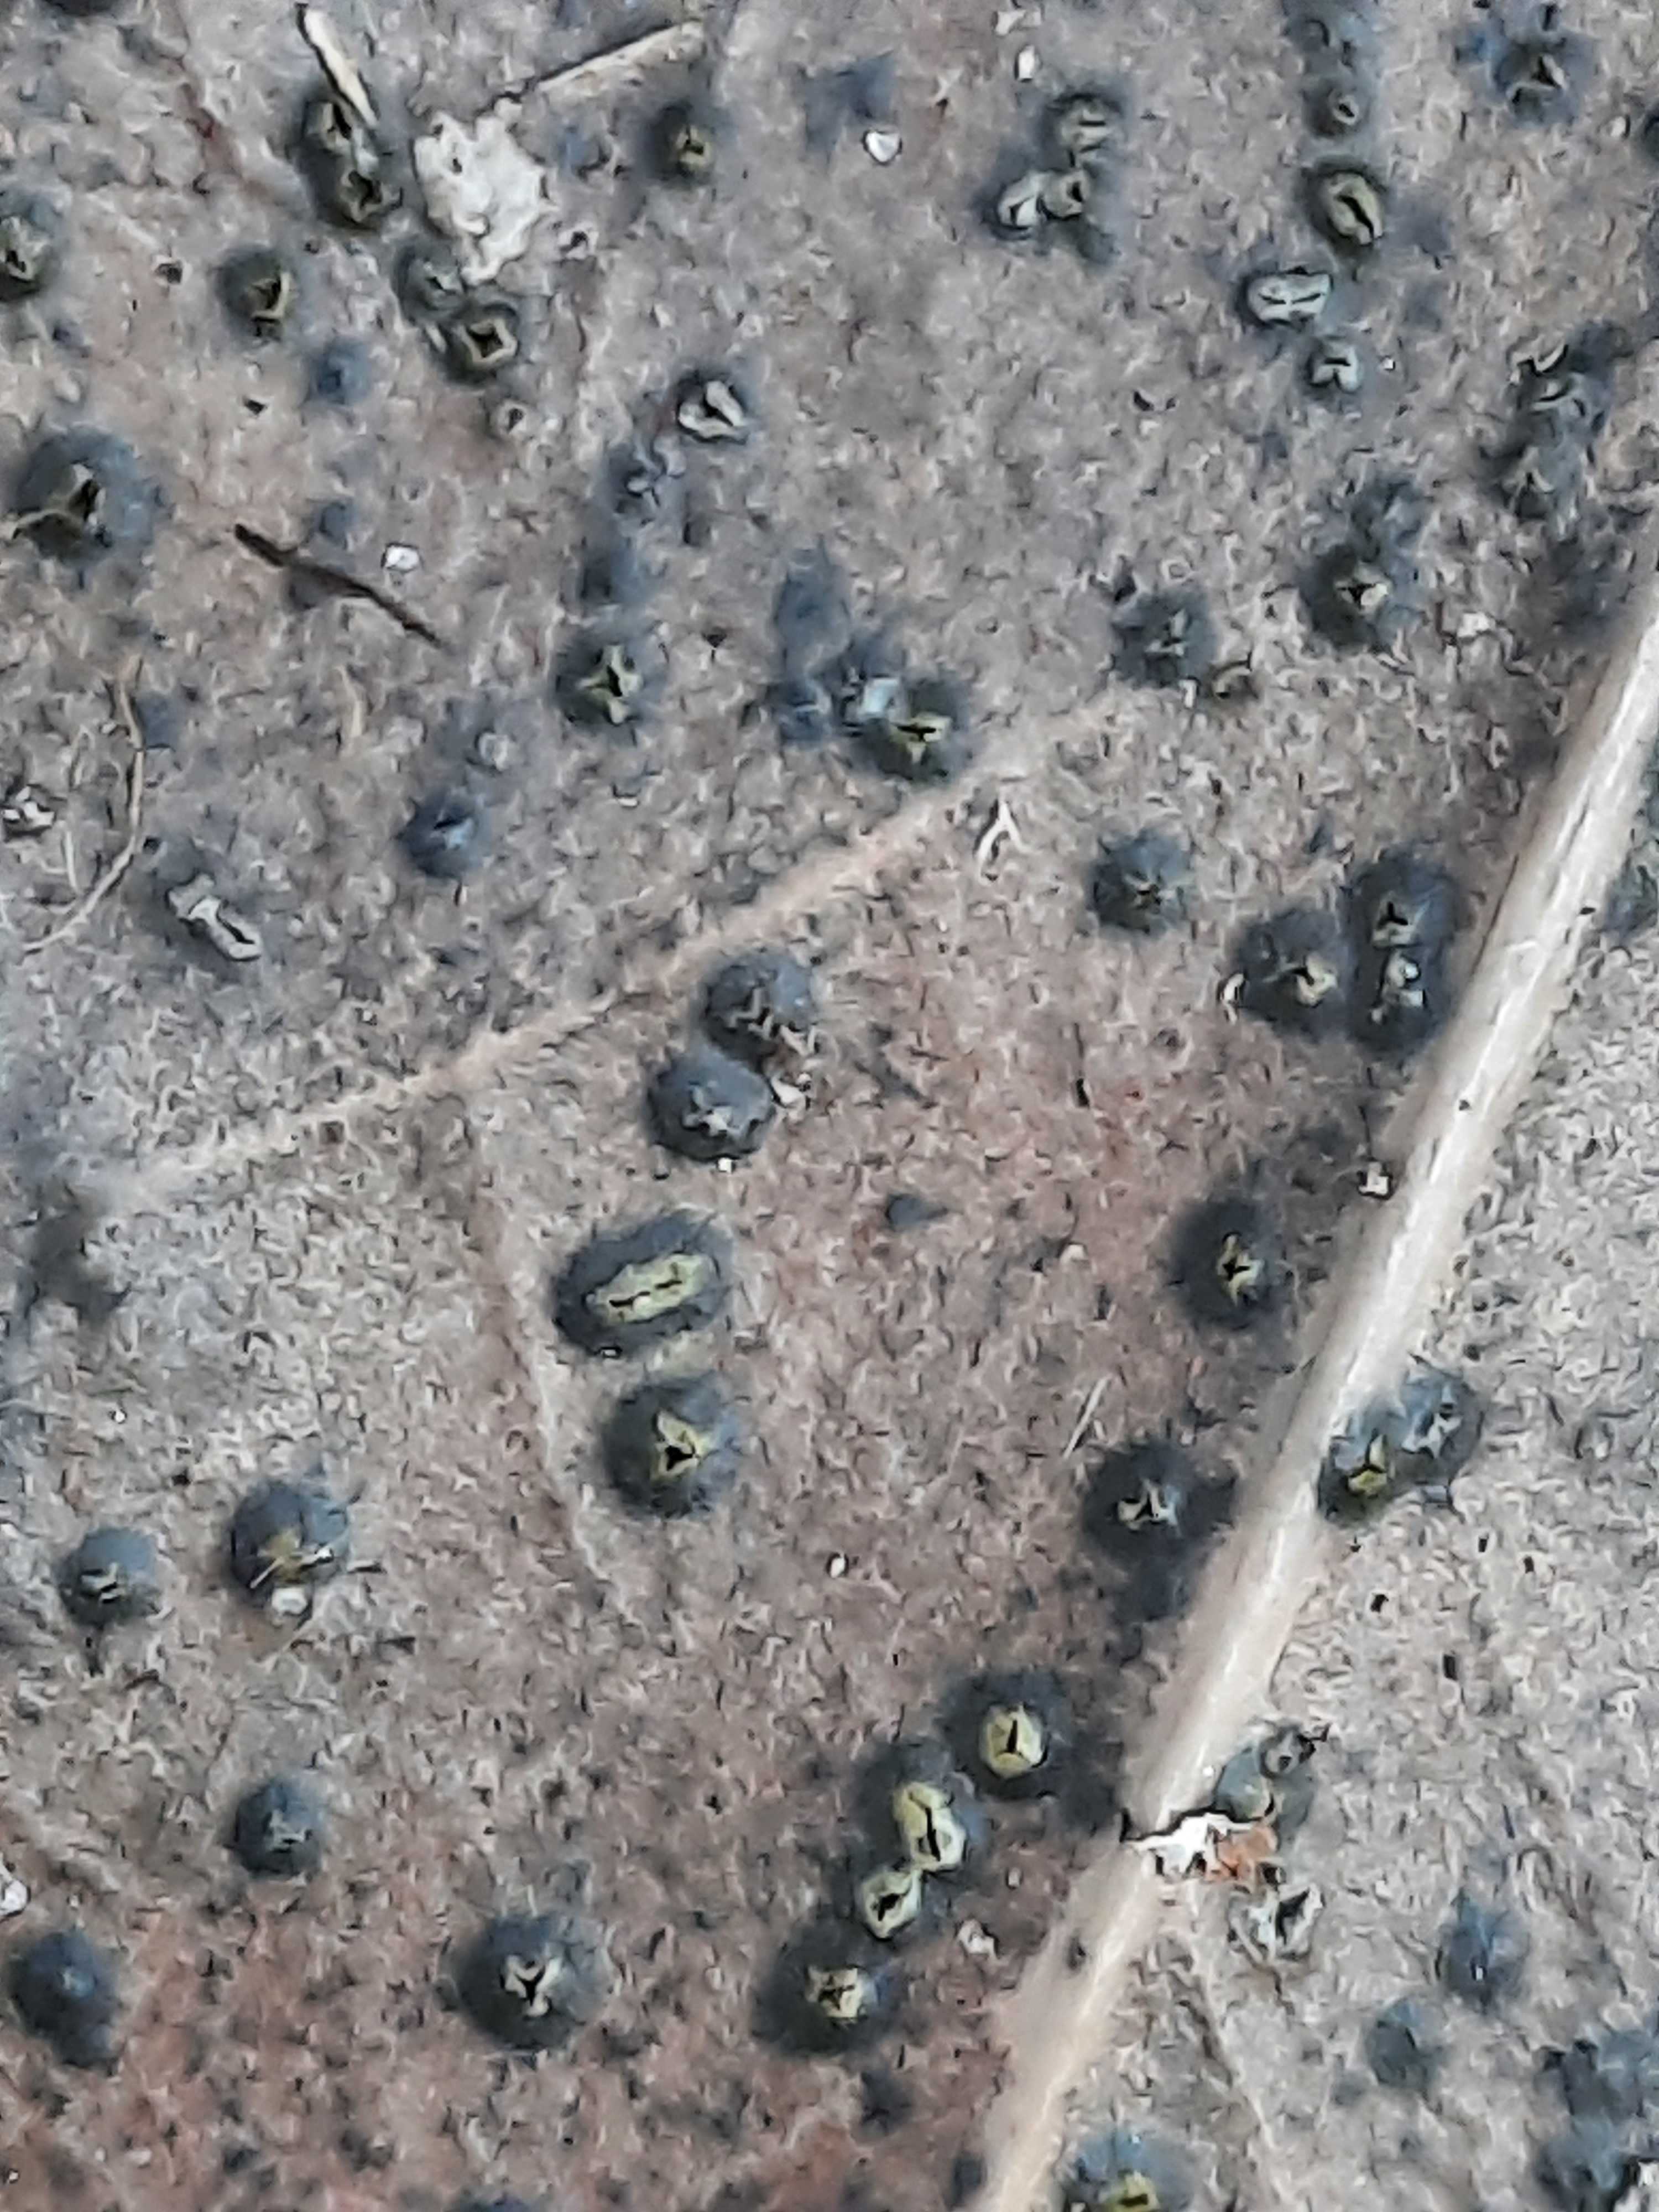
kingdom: Fungi
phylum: Ascomycota
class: Leotiomycetes
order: Phacidiales
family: Phacidiaceae
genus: Phacidium
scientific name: Phacidium lauri
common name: kristtorn-tandskive
